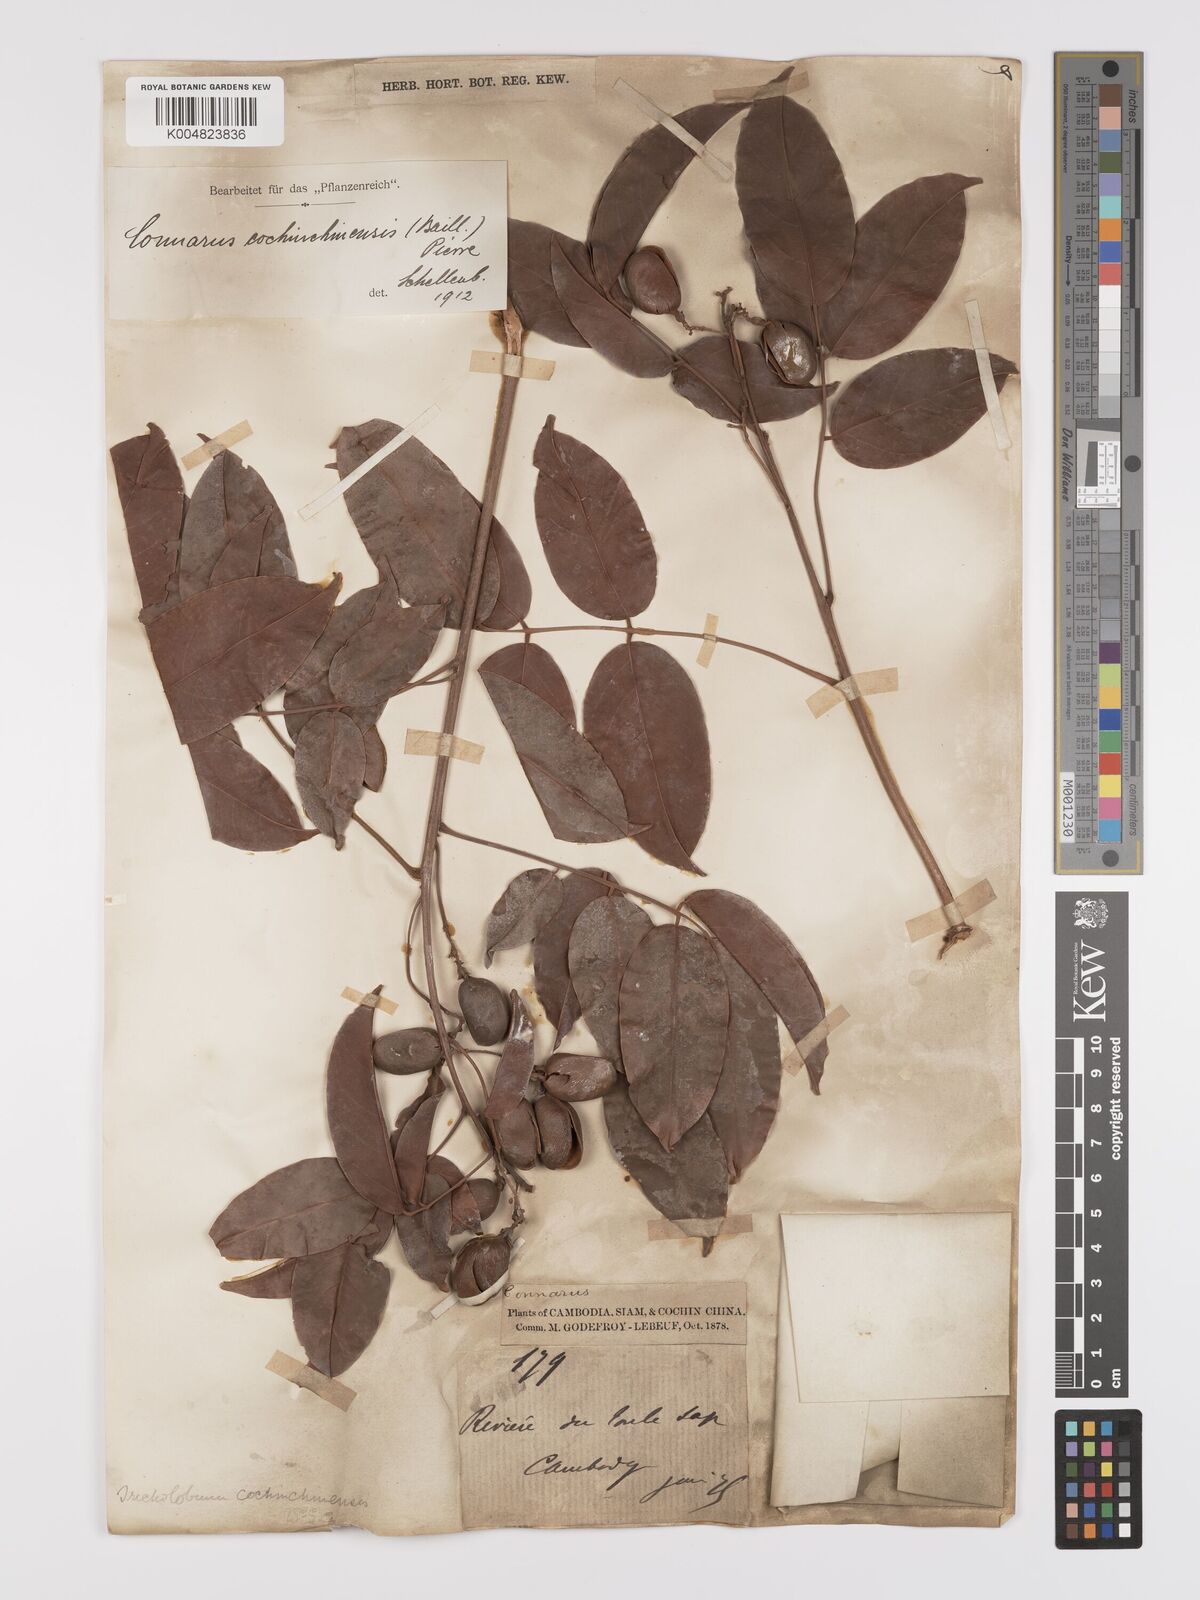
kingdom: Plantae
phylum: Tracheophyta
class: Magnoliopsida
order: Oxalidales
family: Connaraceae
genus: Connarus
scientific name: Connarus cochinchinensis
